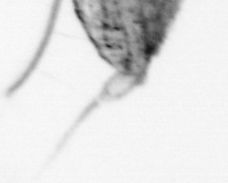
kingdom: Animalia
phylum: Arthropoda
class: Copepoda
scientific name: Copepoda
